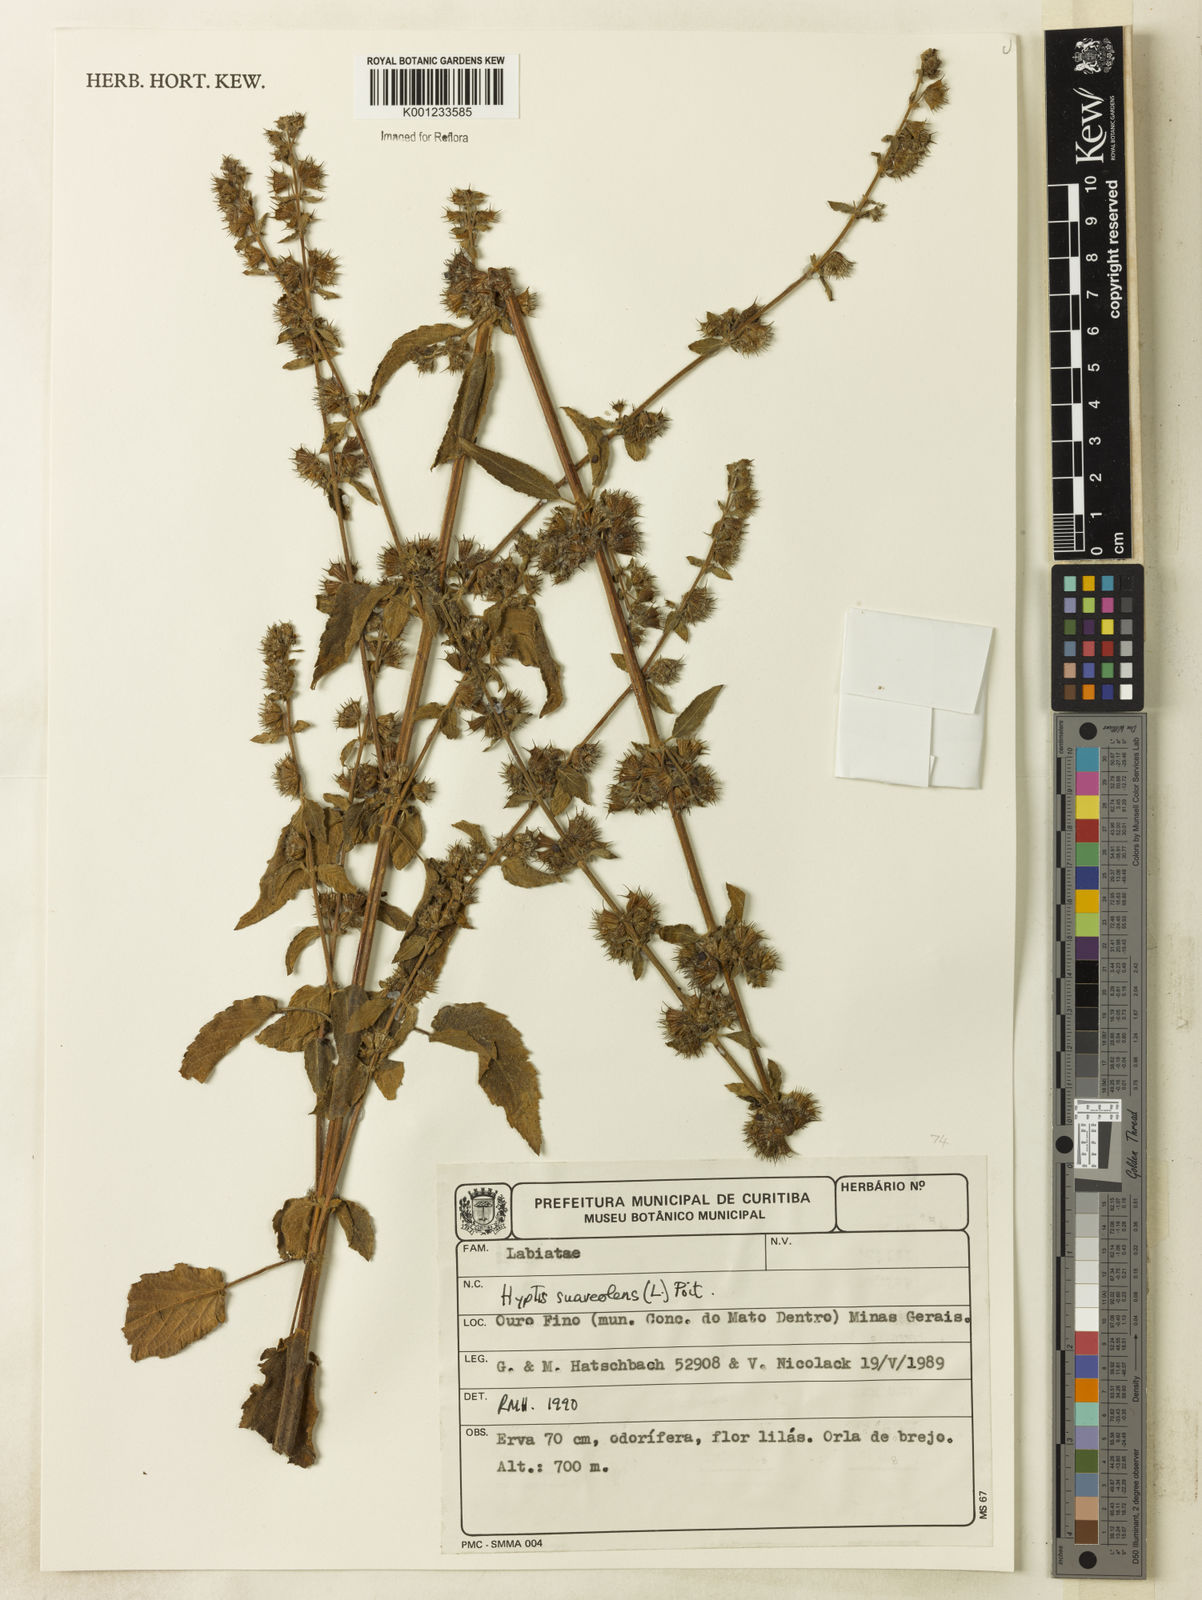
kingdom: Plantae
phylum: Tracheophyta
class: Magnoliopsida
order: Lamiales
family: Lamiaceae
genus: Mesosphaerum
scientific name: Mesosphaerum suaveolens
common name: Pignut
